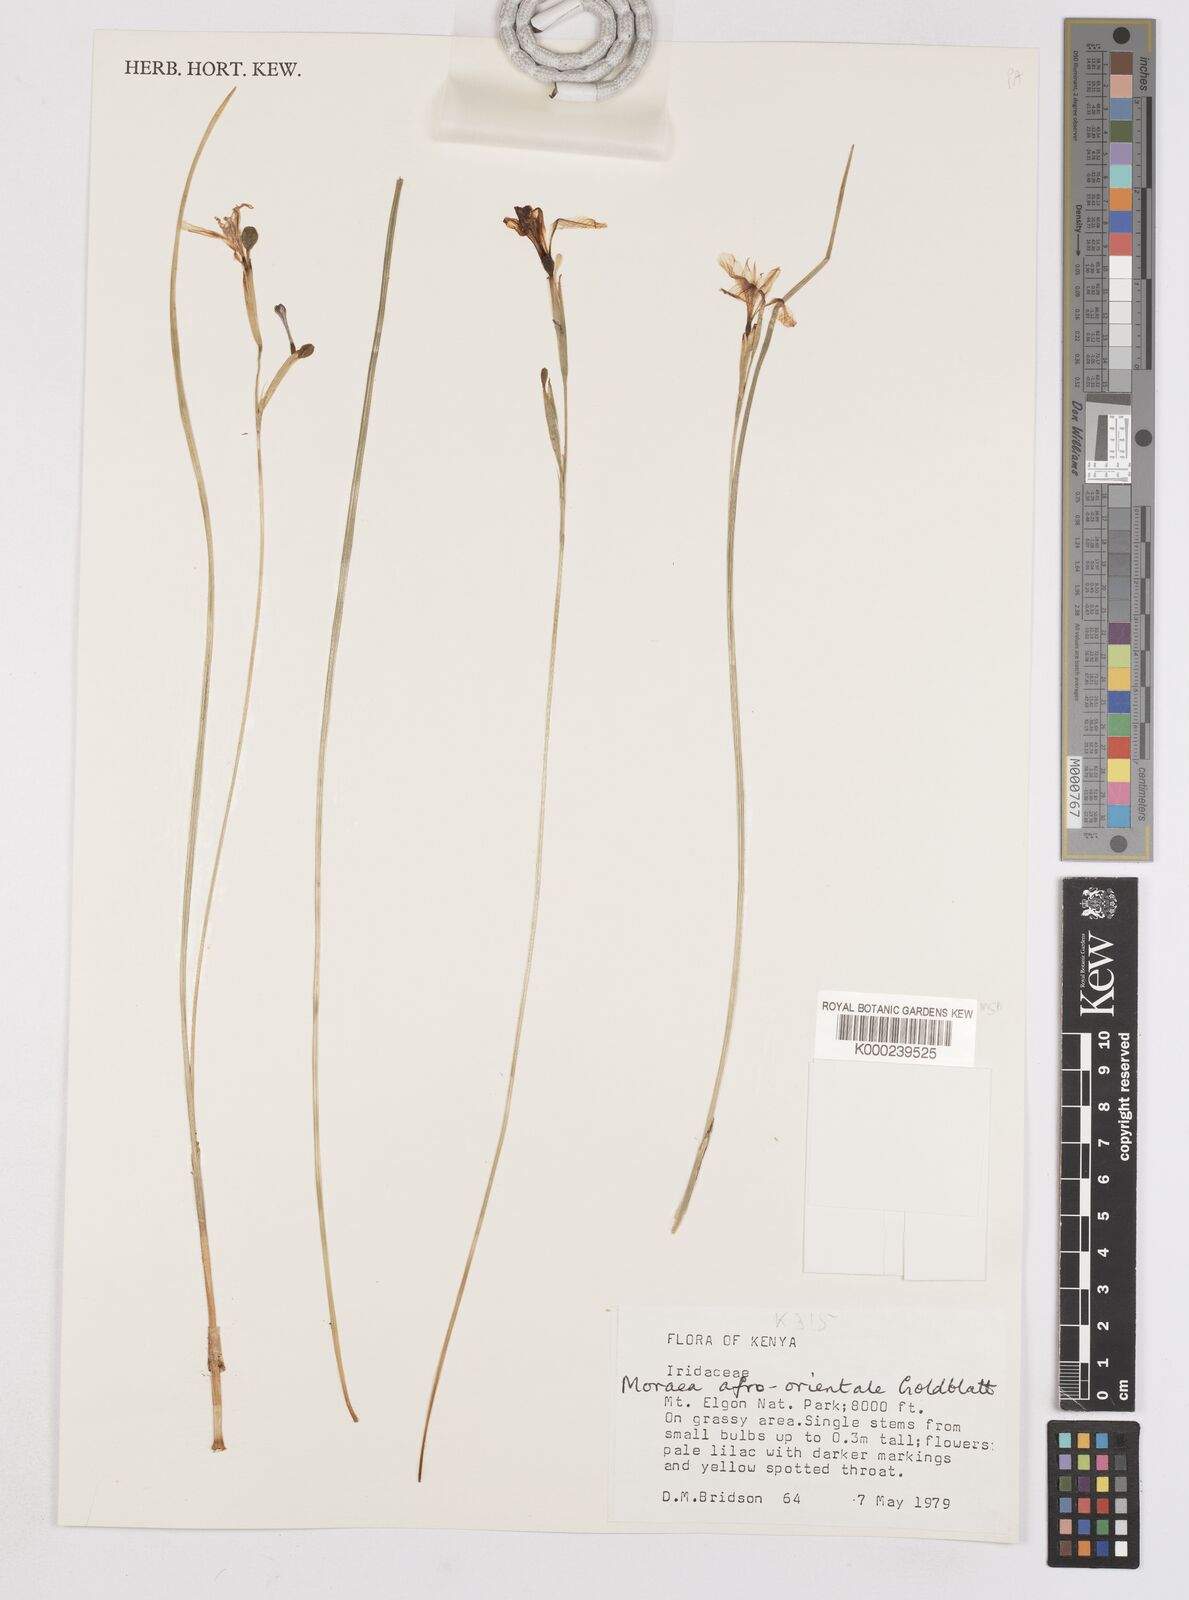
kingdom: Plantae
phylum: Tracheophyta
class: Liliopsida
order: Asparagales
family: Iridaceae
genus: Moraea
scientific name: Moraea
